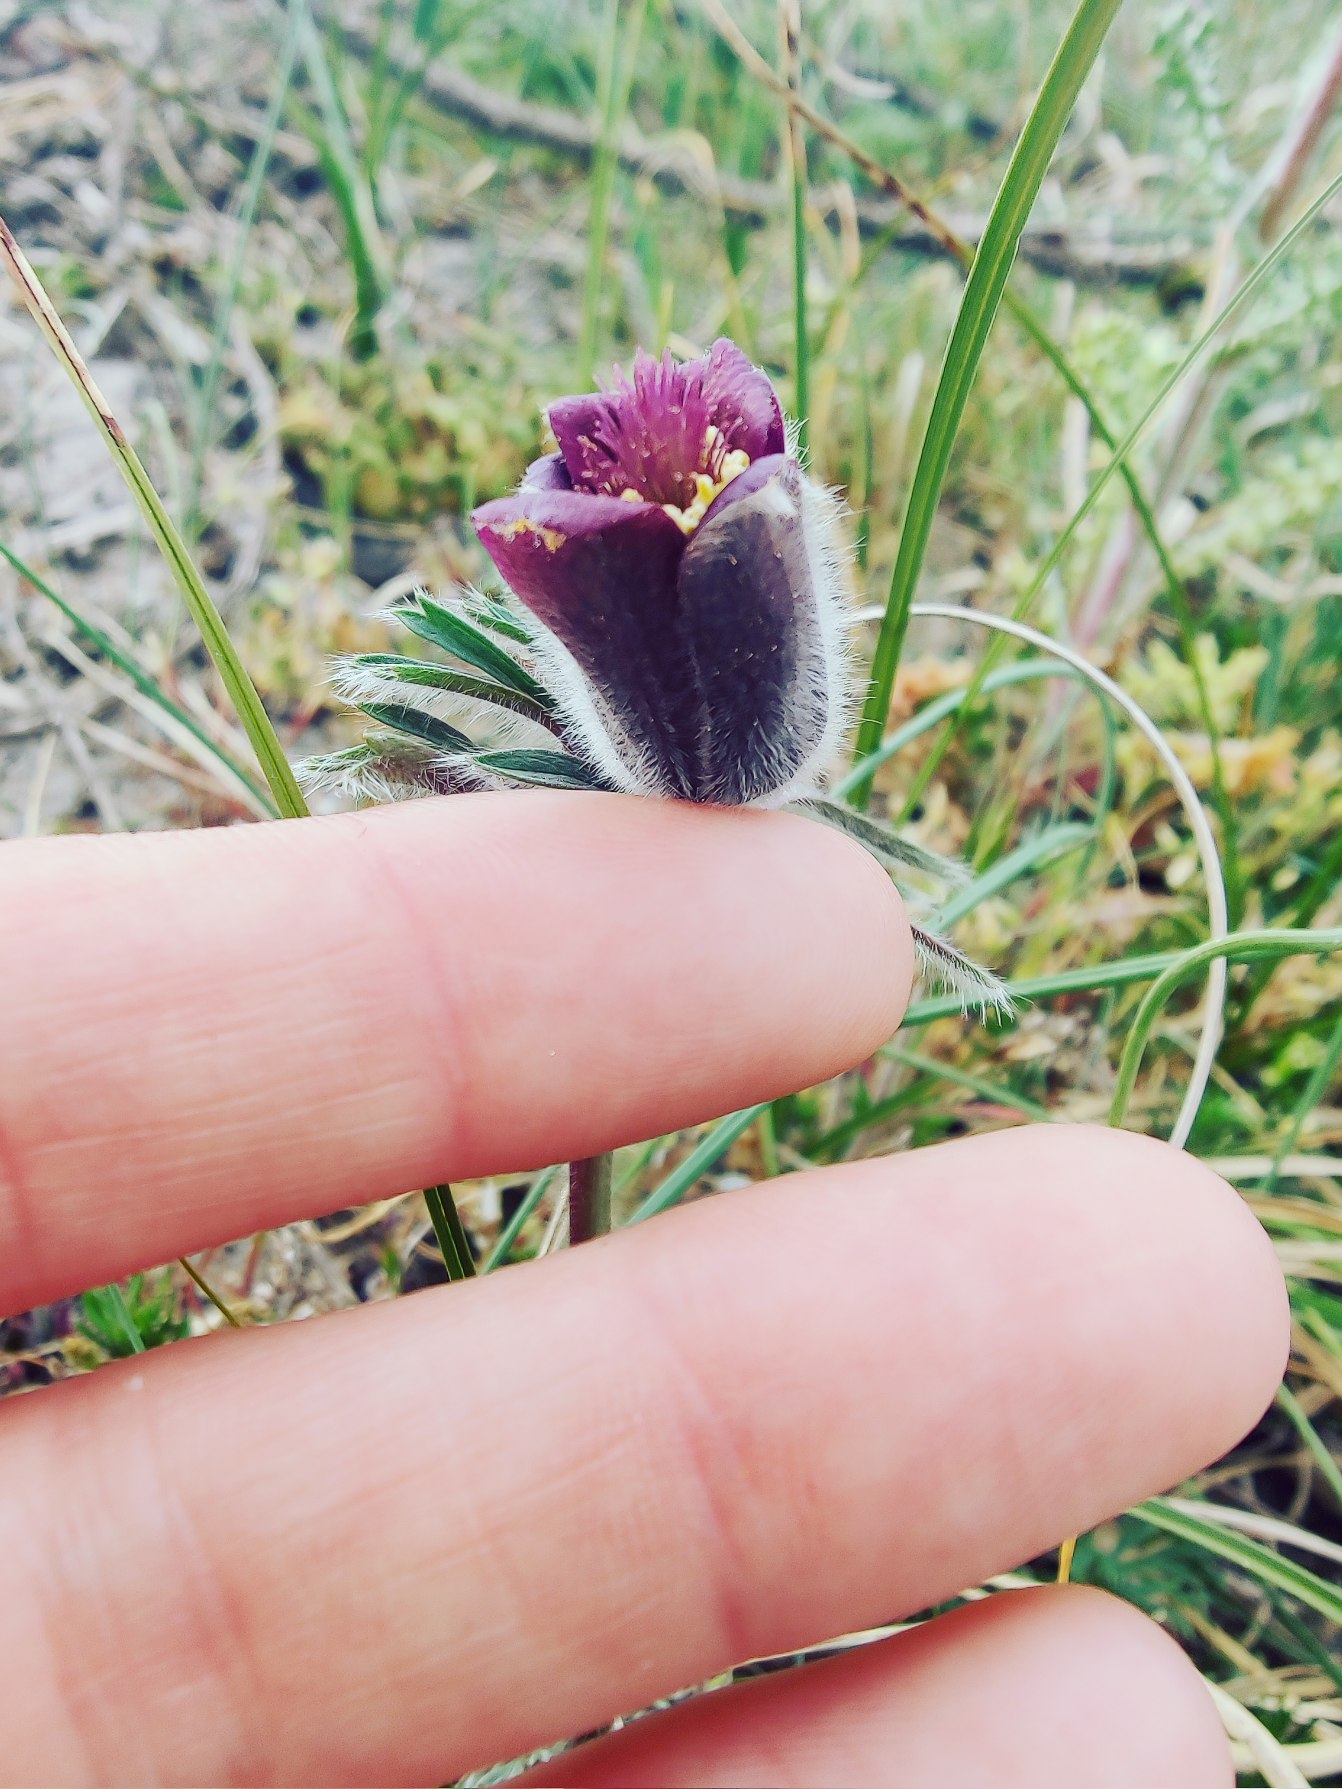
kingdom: Plantae
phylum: Tracheophyta
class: Magnoliopsida
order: Ranunculales
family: Ranunculaceae
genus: Pulsatilla
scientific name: Pulsatilla pratensis
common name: Nikkende kobjælde
